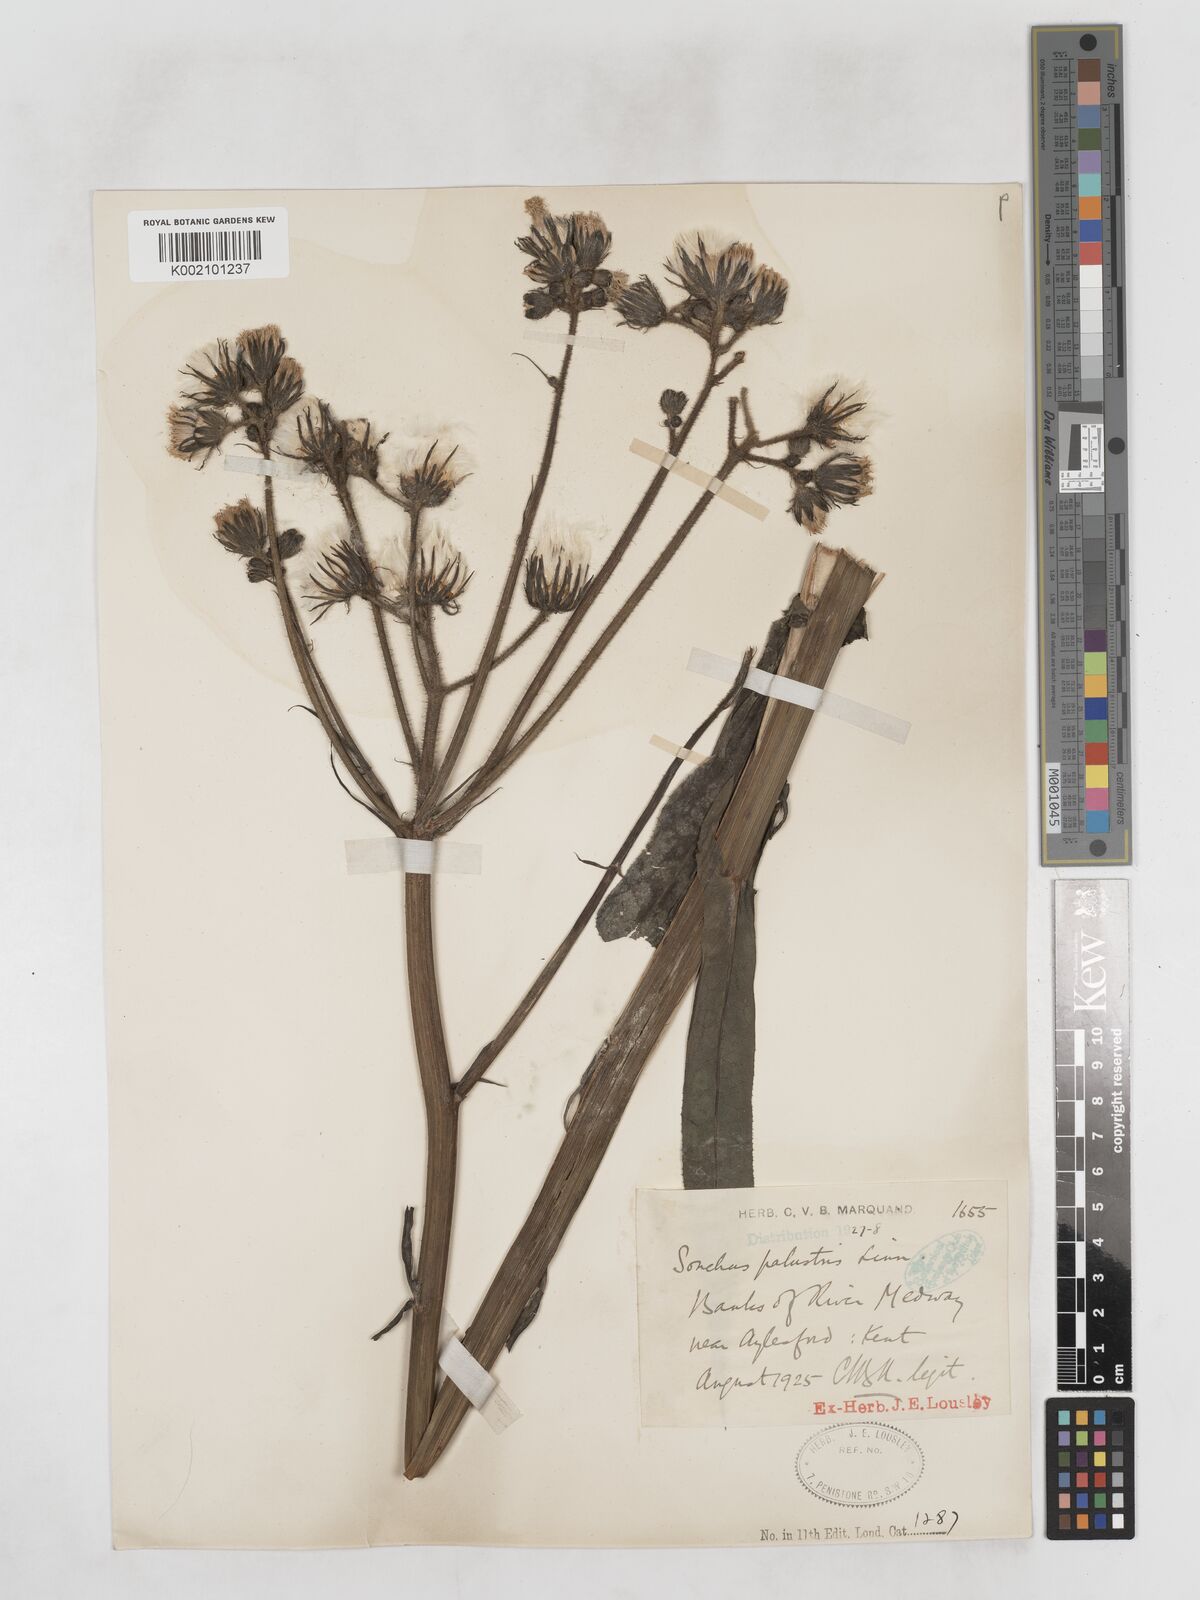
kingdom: Plantae
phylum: Tracheophyta
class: Magnoliopsida
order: Asterales
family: Asteraceae
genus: Sonchus
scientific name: Sonchus palustris
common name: Marsh sow-thistle
